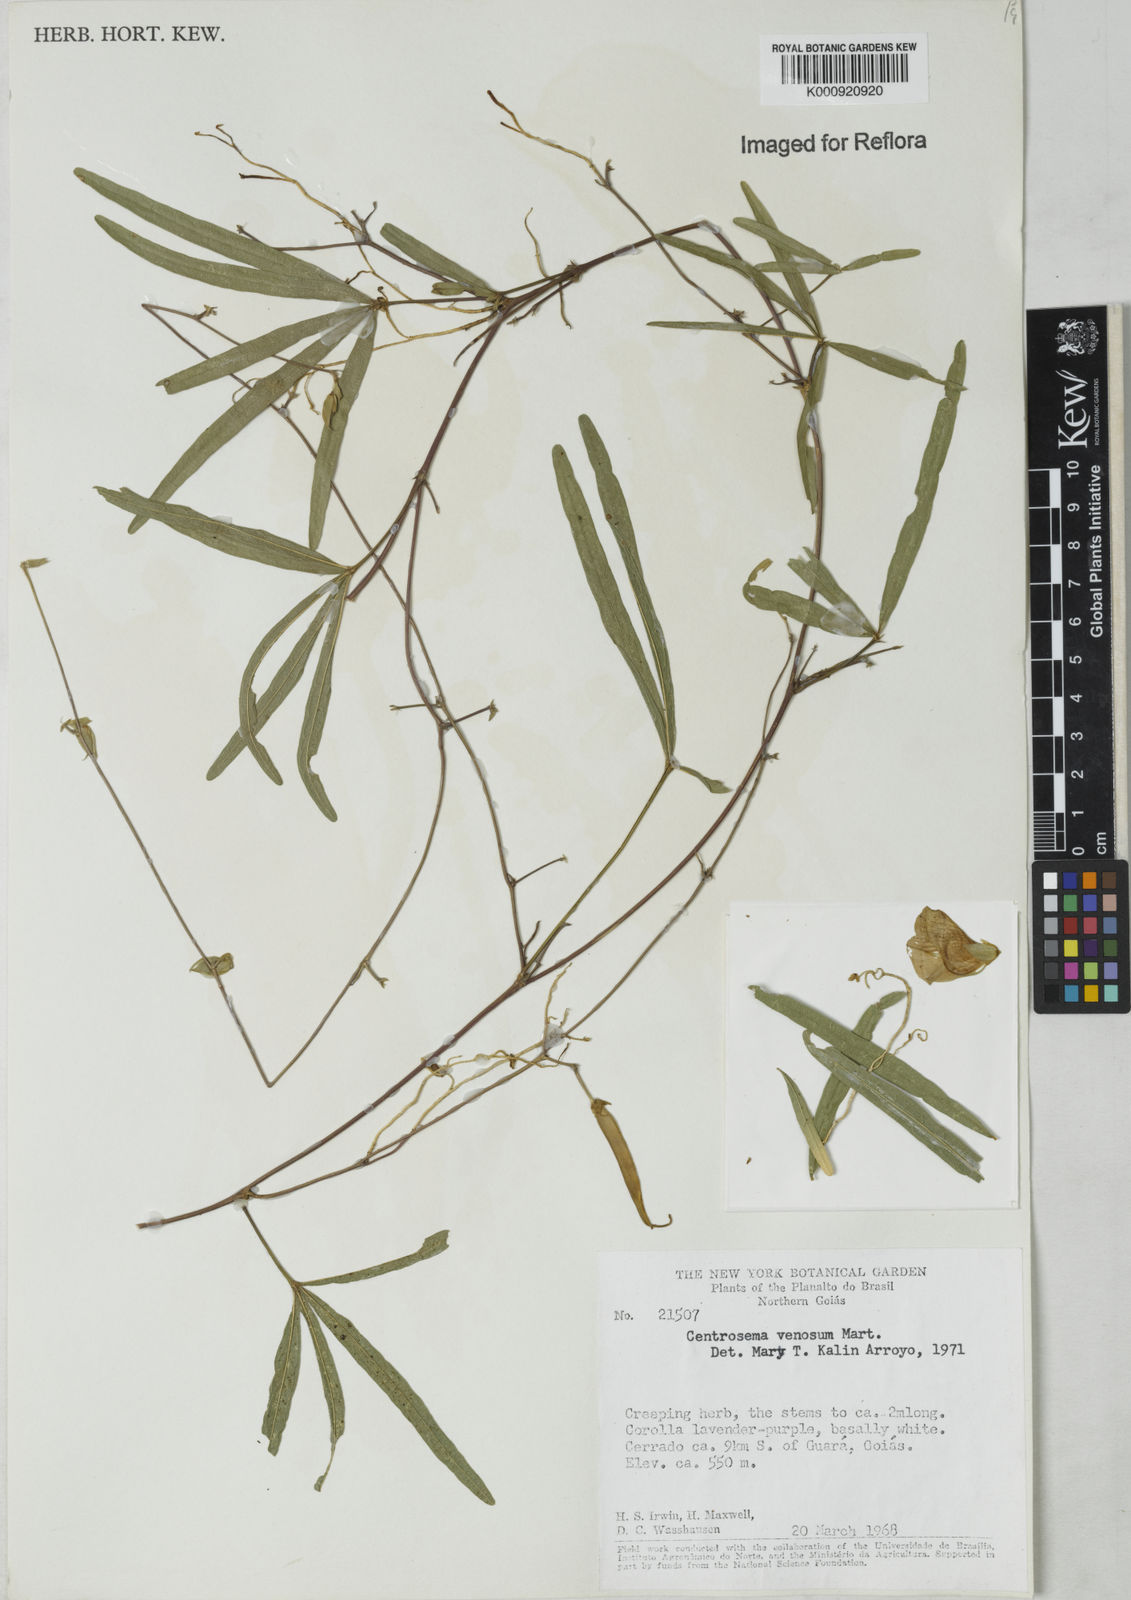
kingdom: Plantae
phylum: Tracheophyta
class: Magnoliopsida
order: Fabales
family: Fabaceae
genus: Centrosema
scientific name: Centrosema
